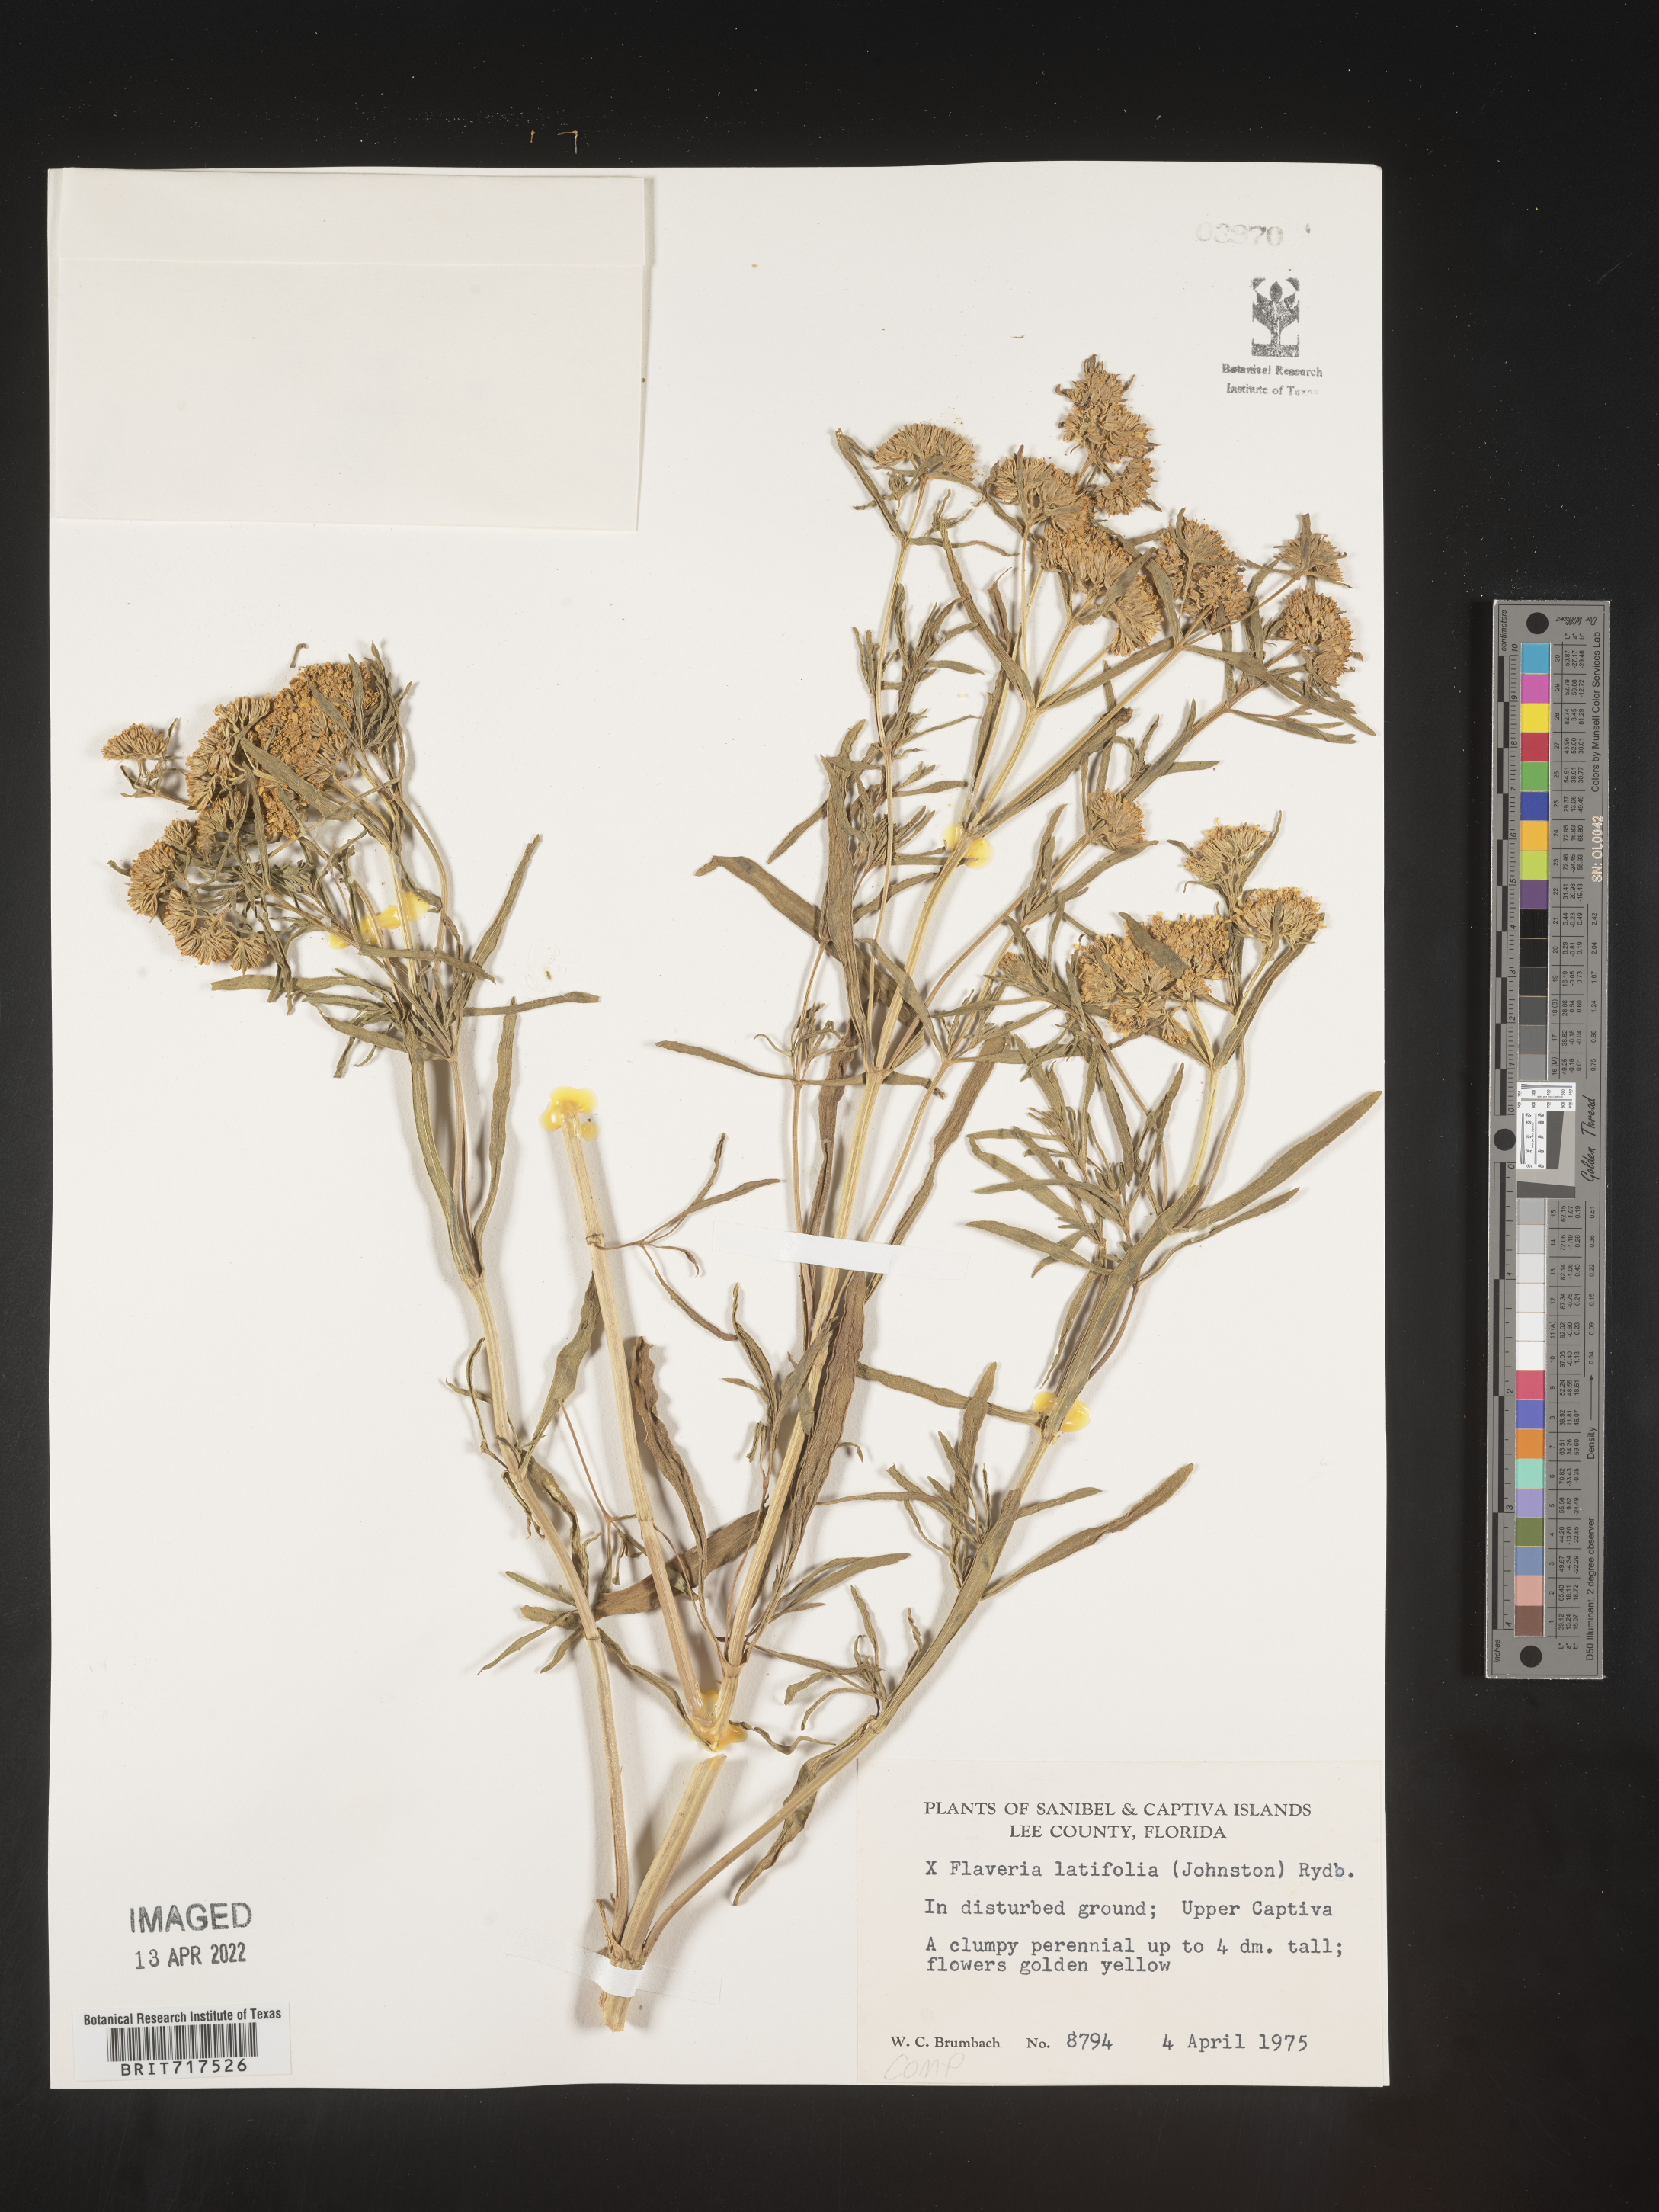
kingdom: Plantae
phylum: Tracheophyta
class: Magnoliopsida
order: Asterales
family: Asteraceae
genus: Flaveria
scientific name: Flaveria linearis
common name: Yellowtop
